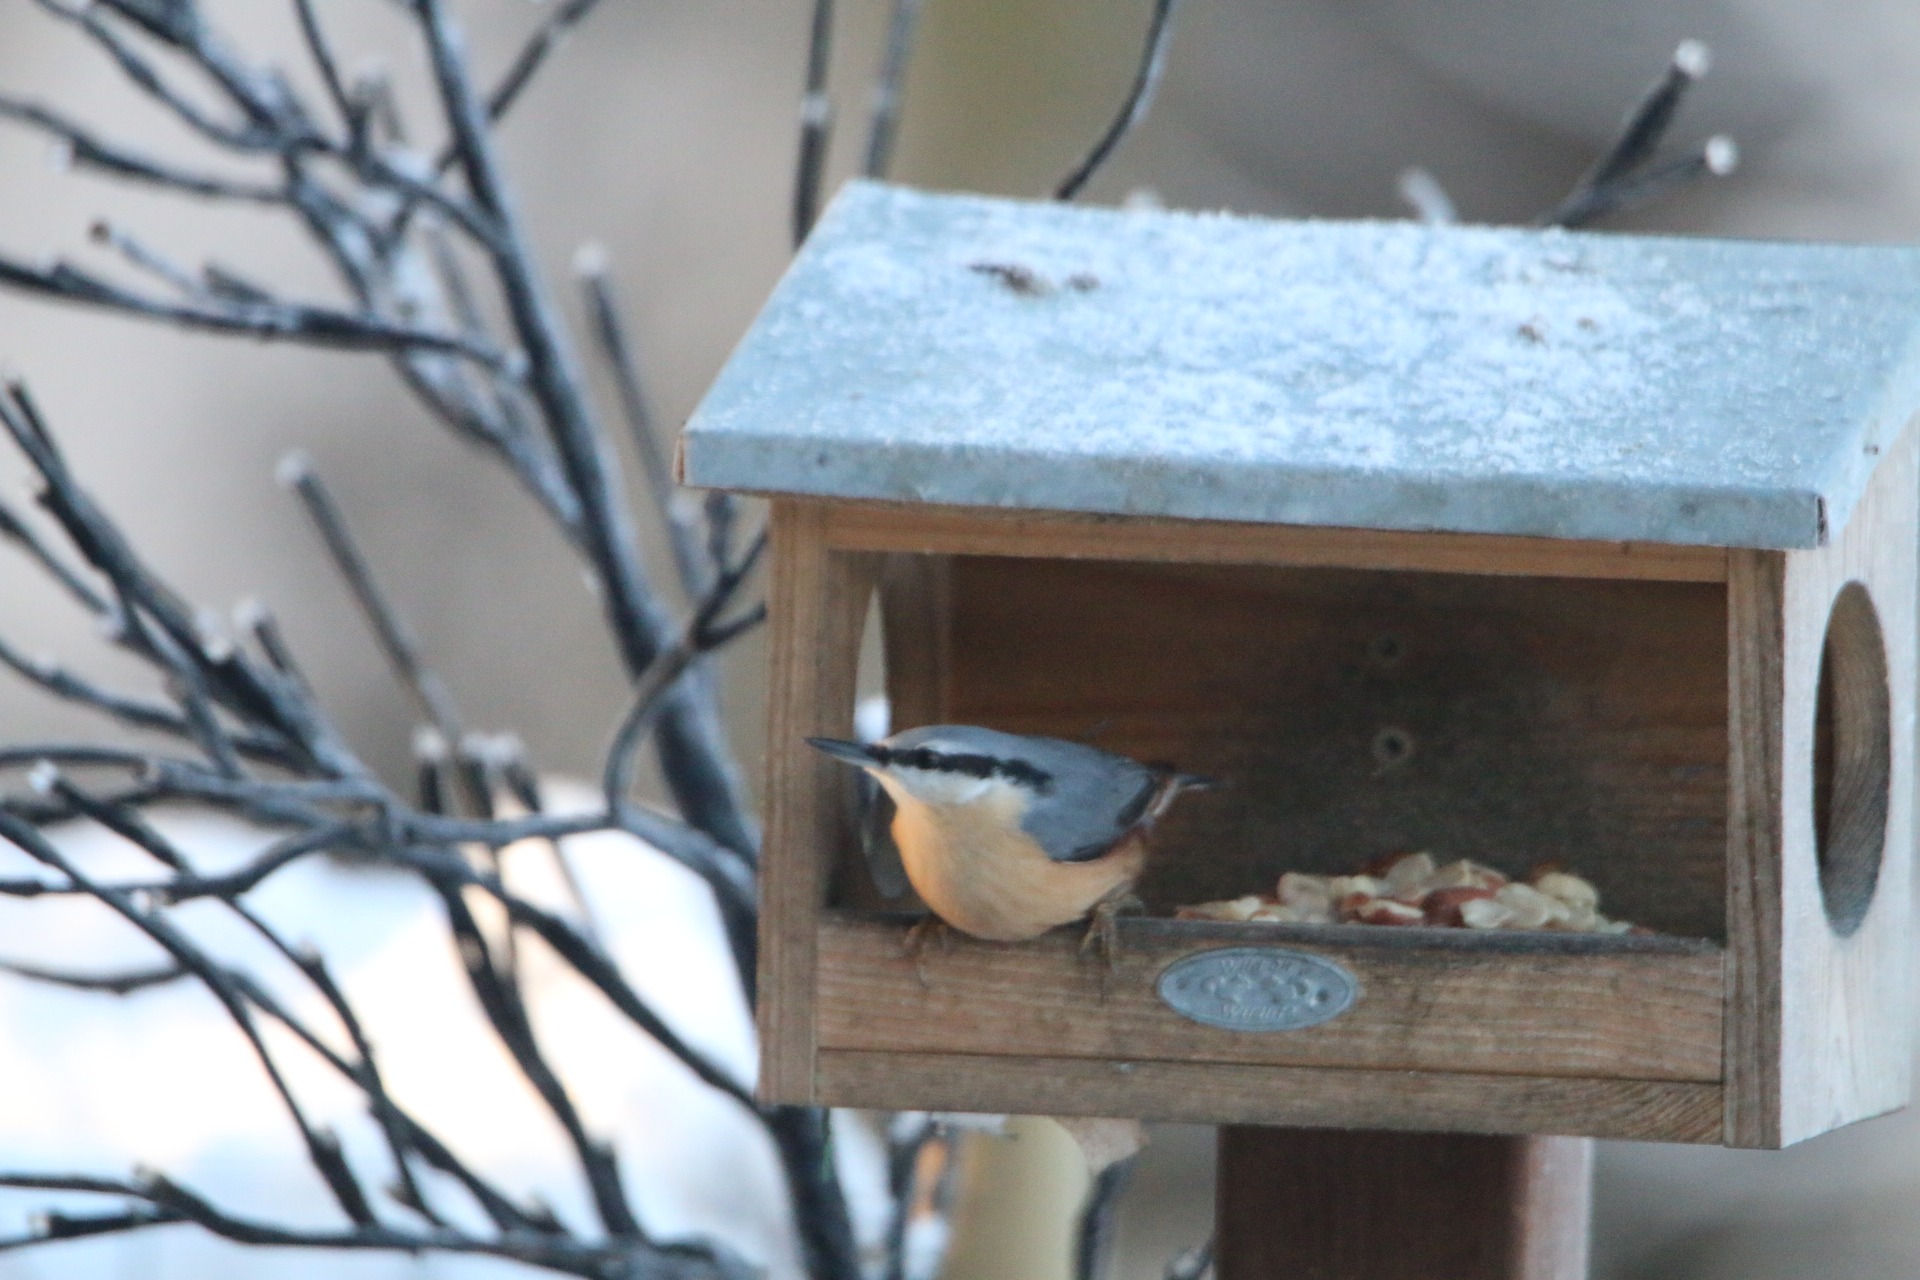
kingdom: Animalia
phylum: Chordata
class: Aves
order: Passeriformes
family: Sittidae
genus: Sitta
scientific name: Sitta europaea
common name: Spætmejse
